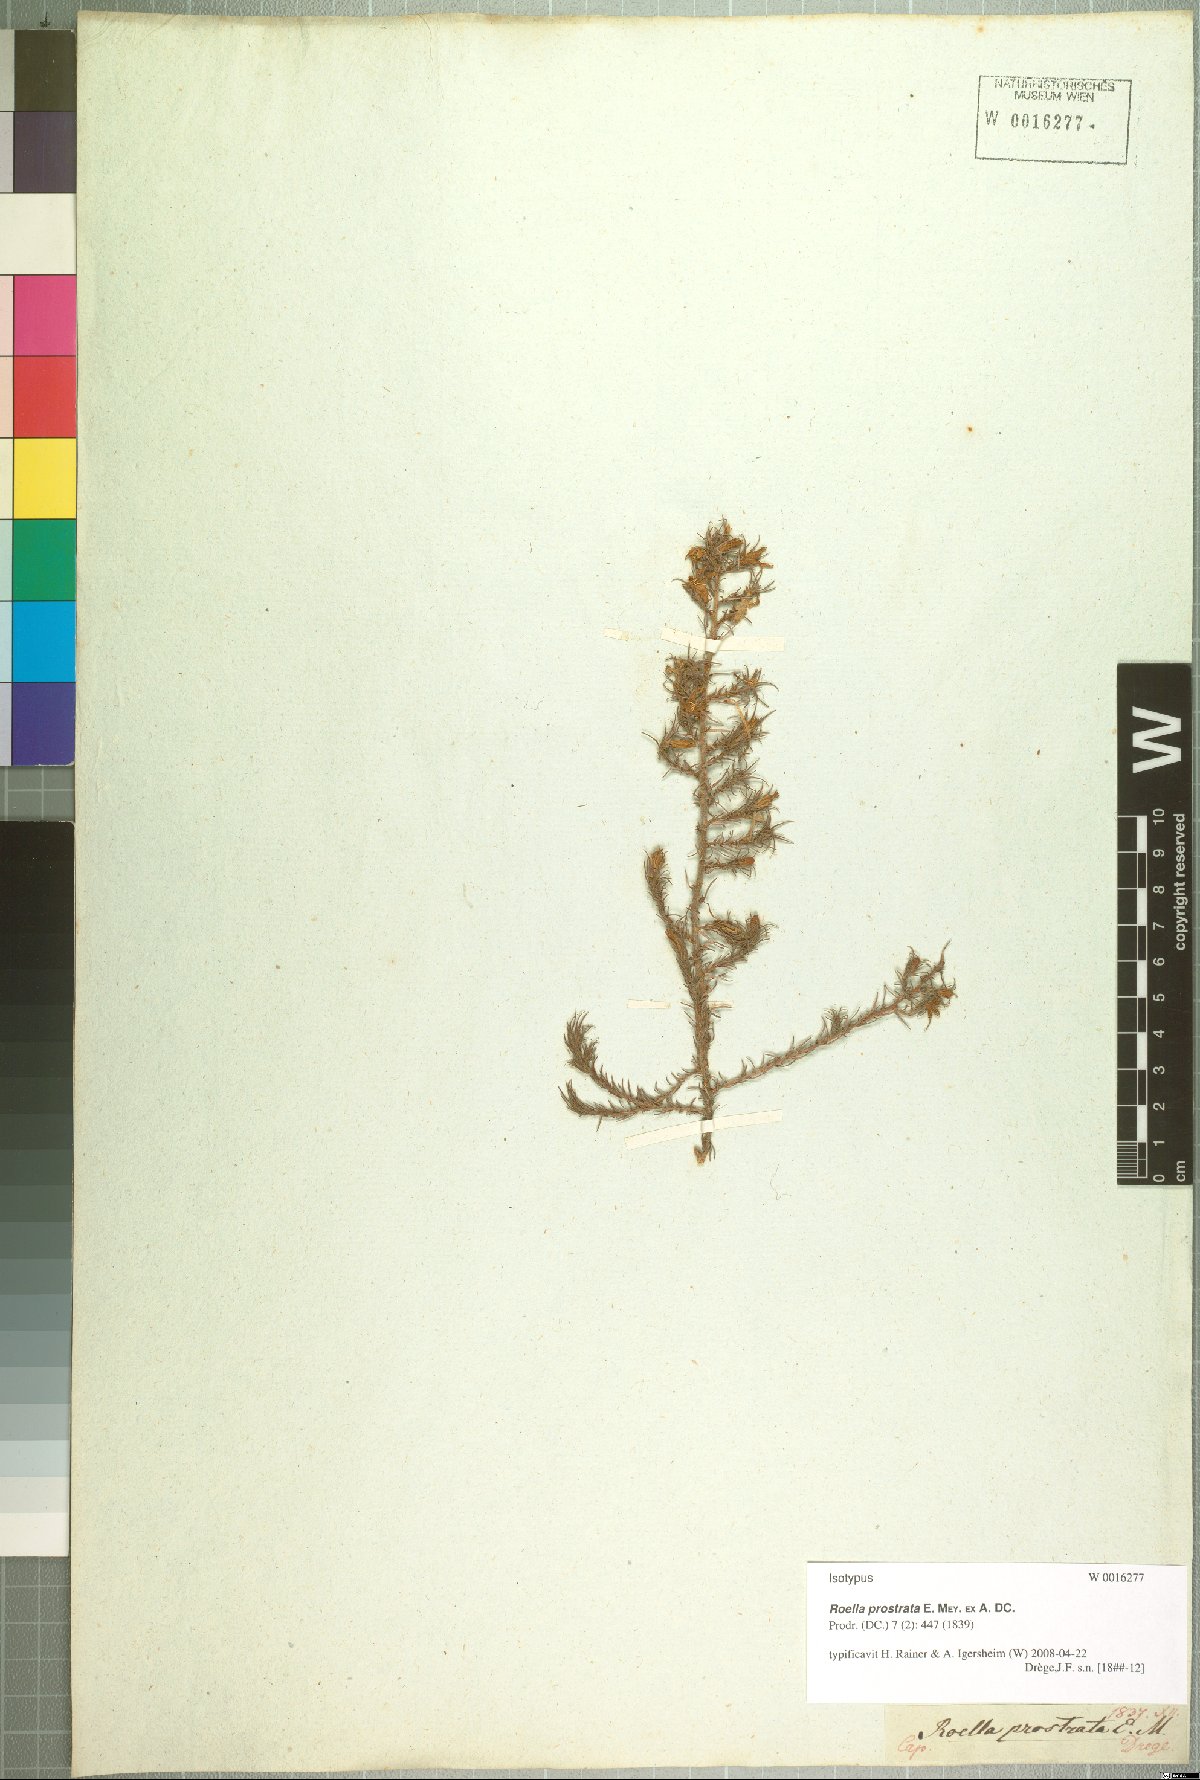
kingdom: Plantae
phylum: Tracheophyta
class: Magnoliopsida
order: Asterales
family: Campanulaceae
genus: Roella
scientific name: Roella prostrata
